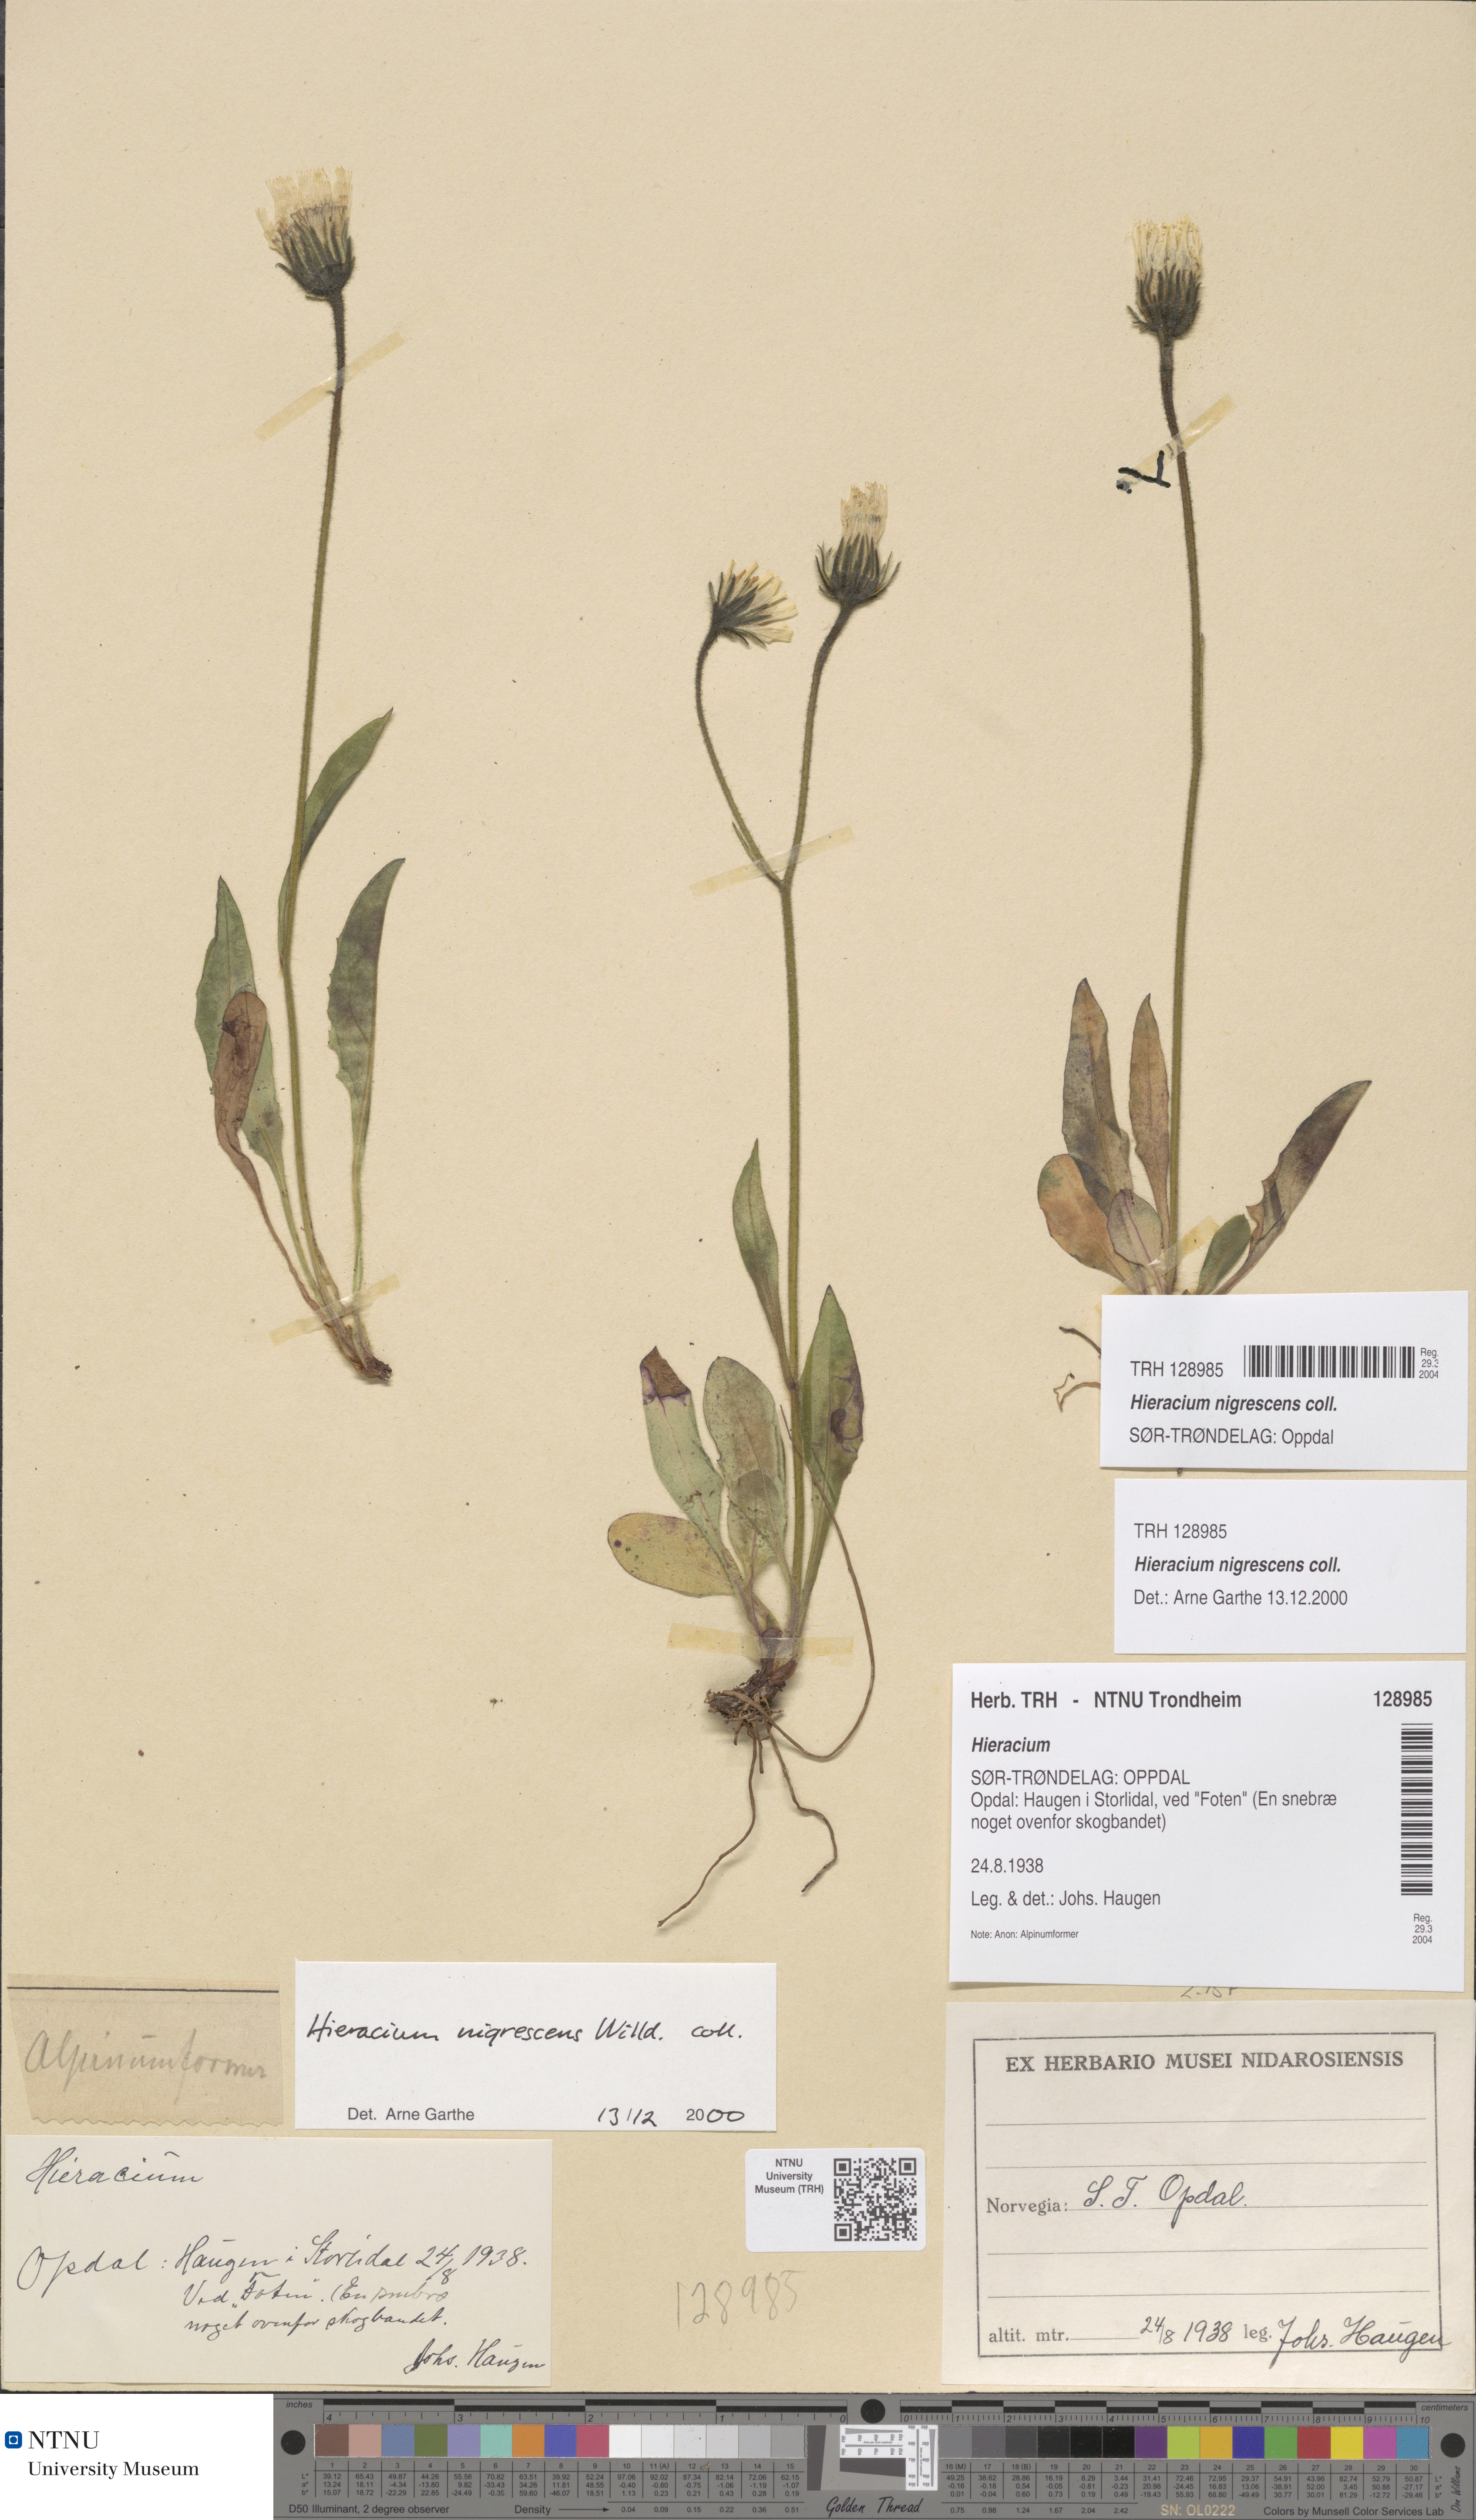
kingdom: Plantae
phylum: Tracheophyta
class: Magnoliopsida
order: Asterales
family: Asteraceae
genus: Hieracium
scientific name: Hieracium nigrescens
